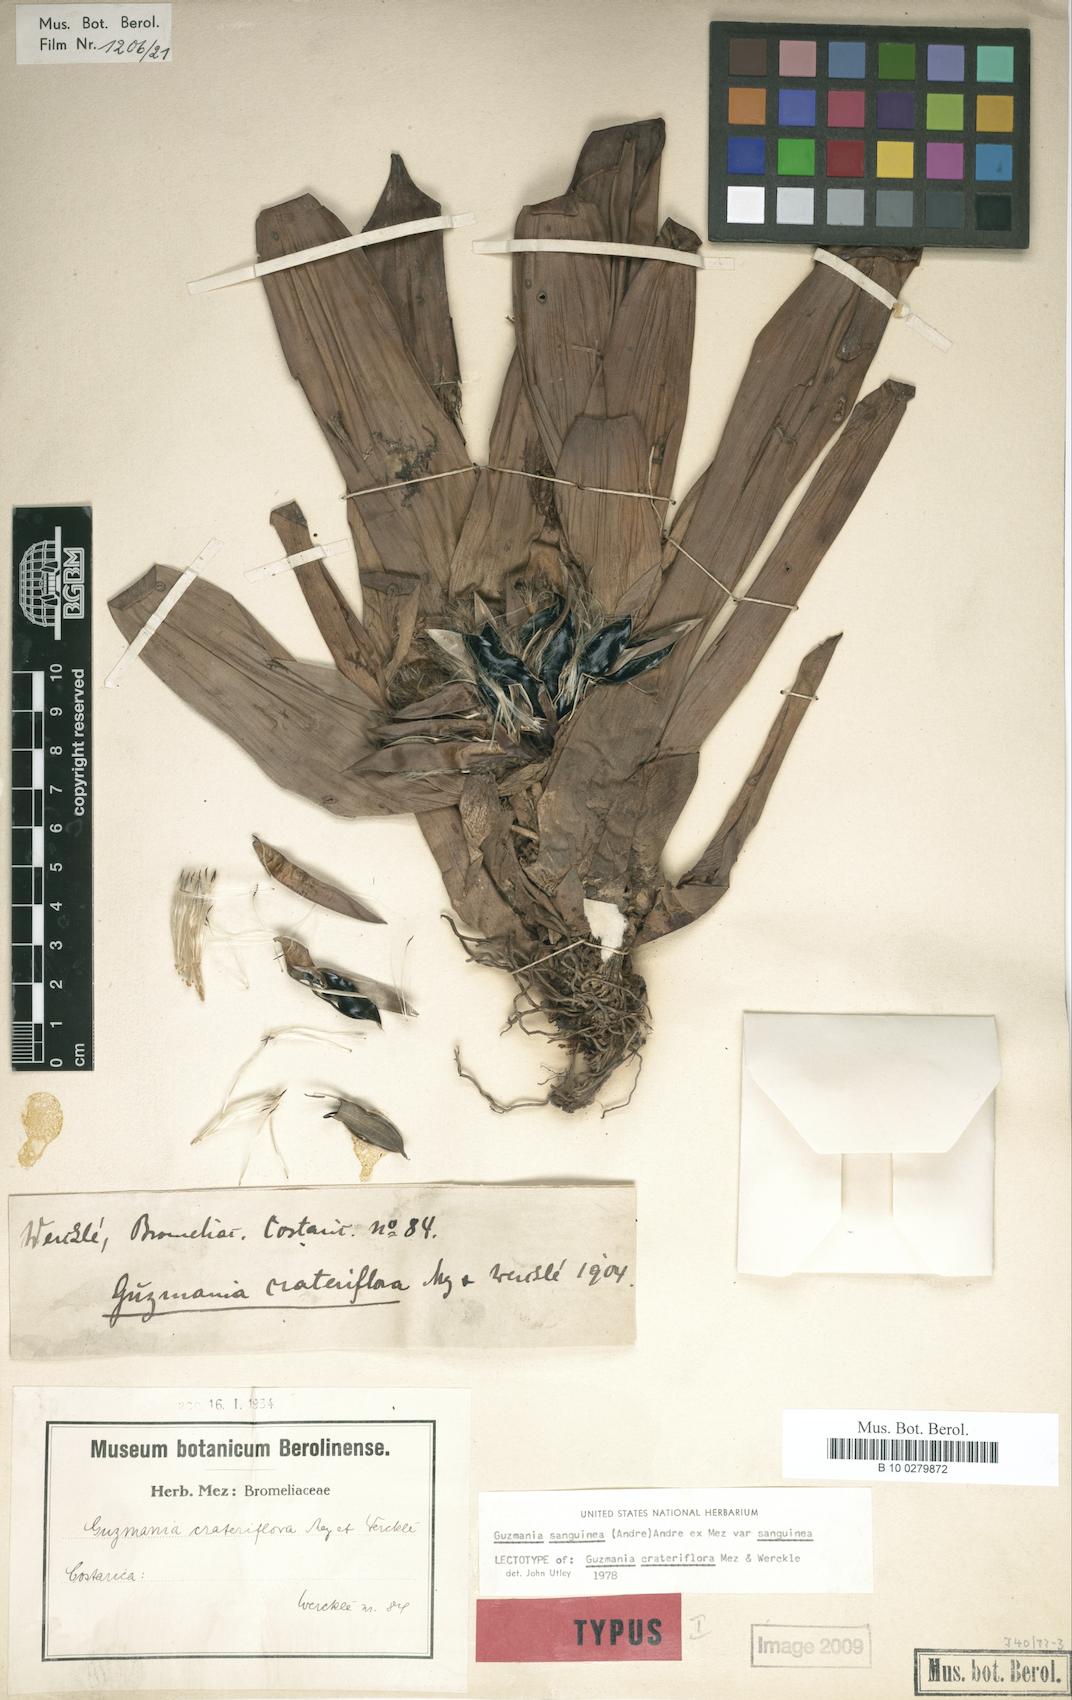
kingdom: Plantae
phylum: Tracheophyta
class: Liliopsida
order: Poales
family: Bromeliaceae
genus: Guzmania
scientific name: Guzmania sanguinea
